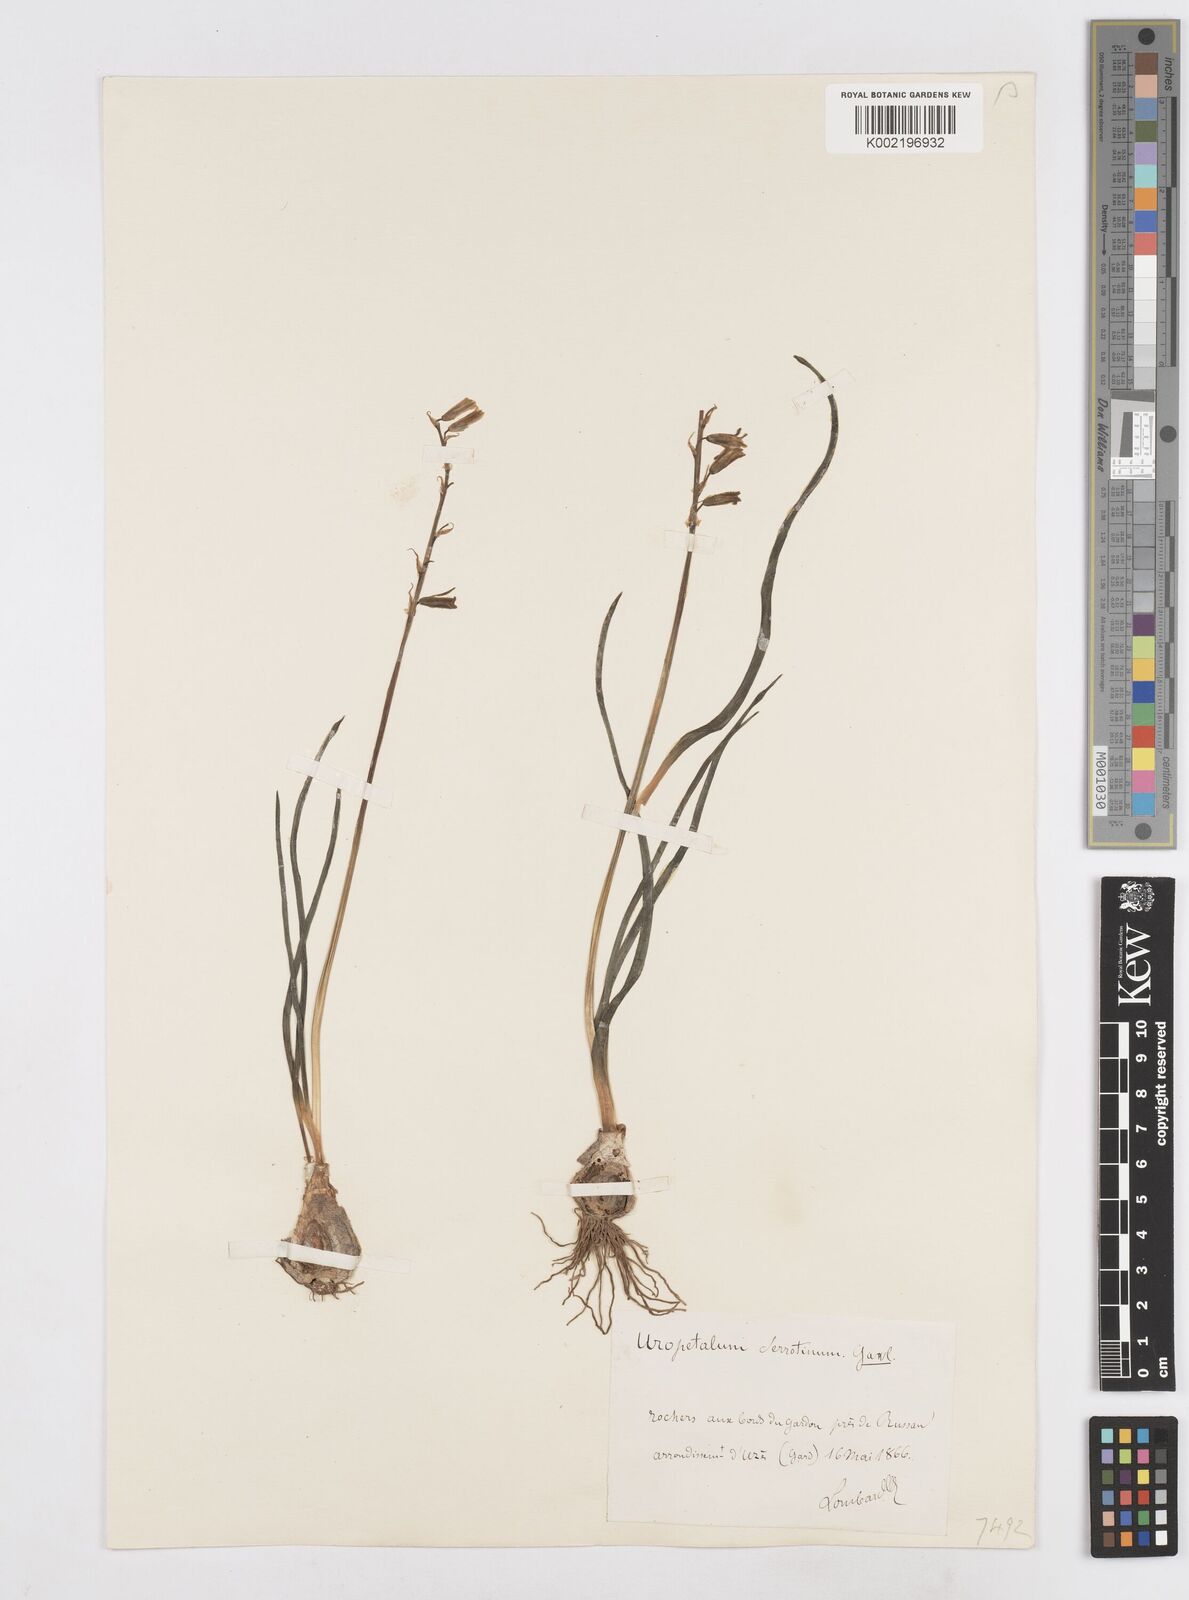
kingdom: Plantae
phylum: Tracheophyta
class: Liliopsida
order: Asparagales
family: Asparagaceae
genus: Dipcadi
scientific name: Dipcadi serotinum
